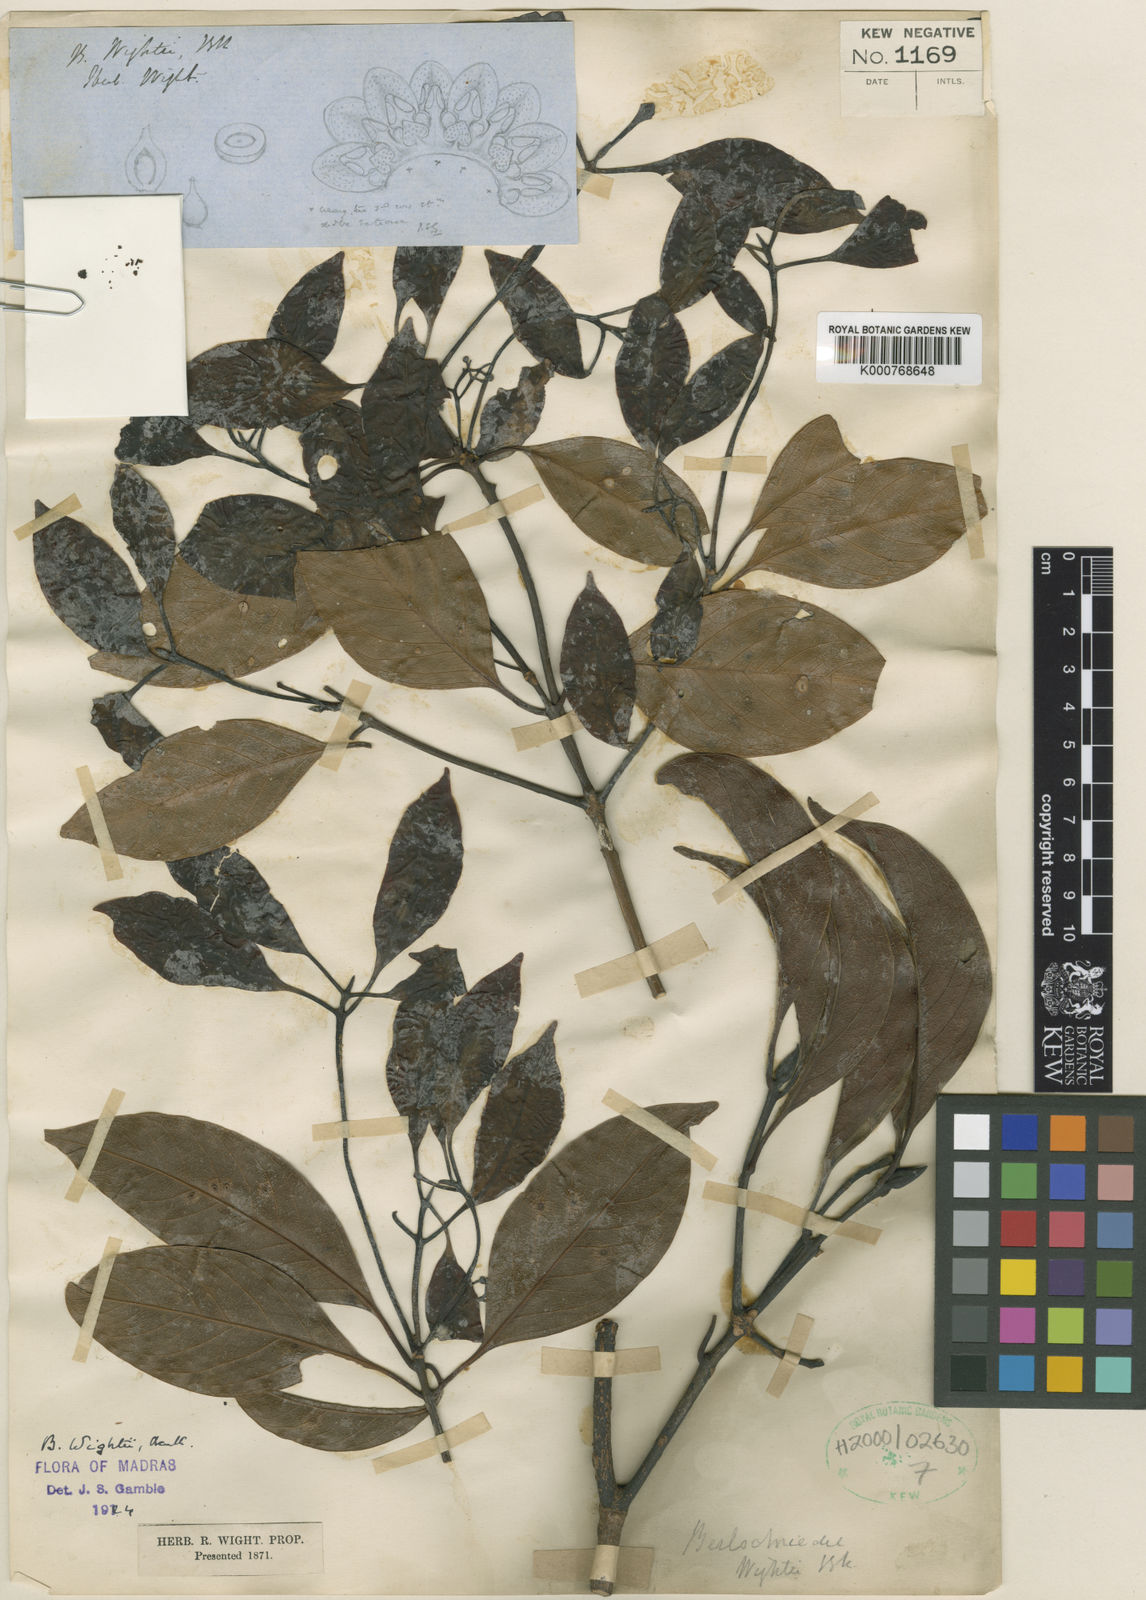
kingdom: Plantae
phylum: Tracheophyta
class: Magnoliopsida
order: Laurales
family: Lauraceae
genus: Beilschmiedia
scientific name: Beilschmiedia
